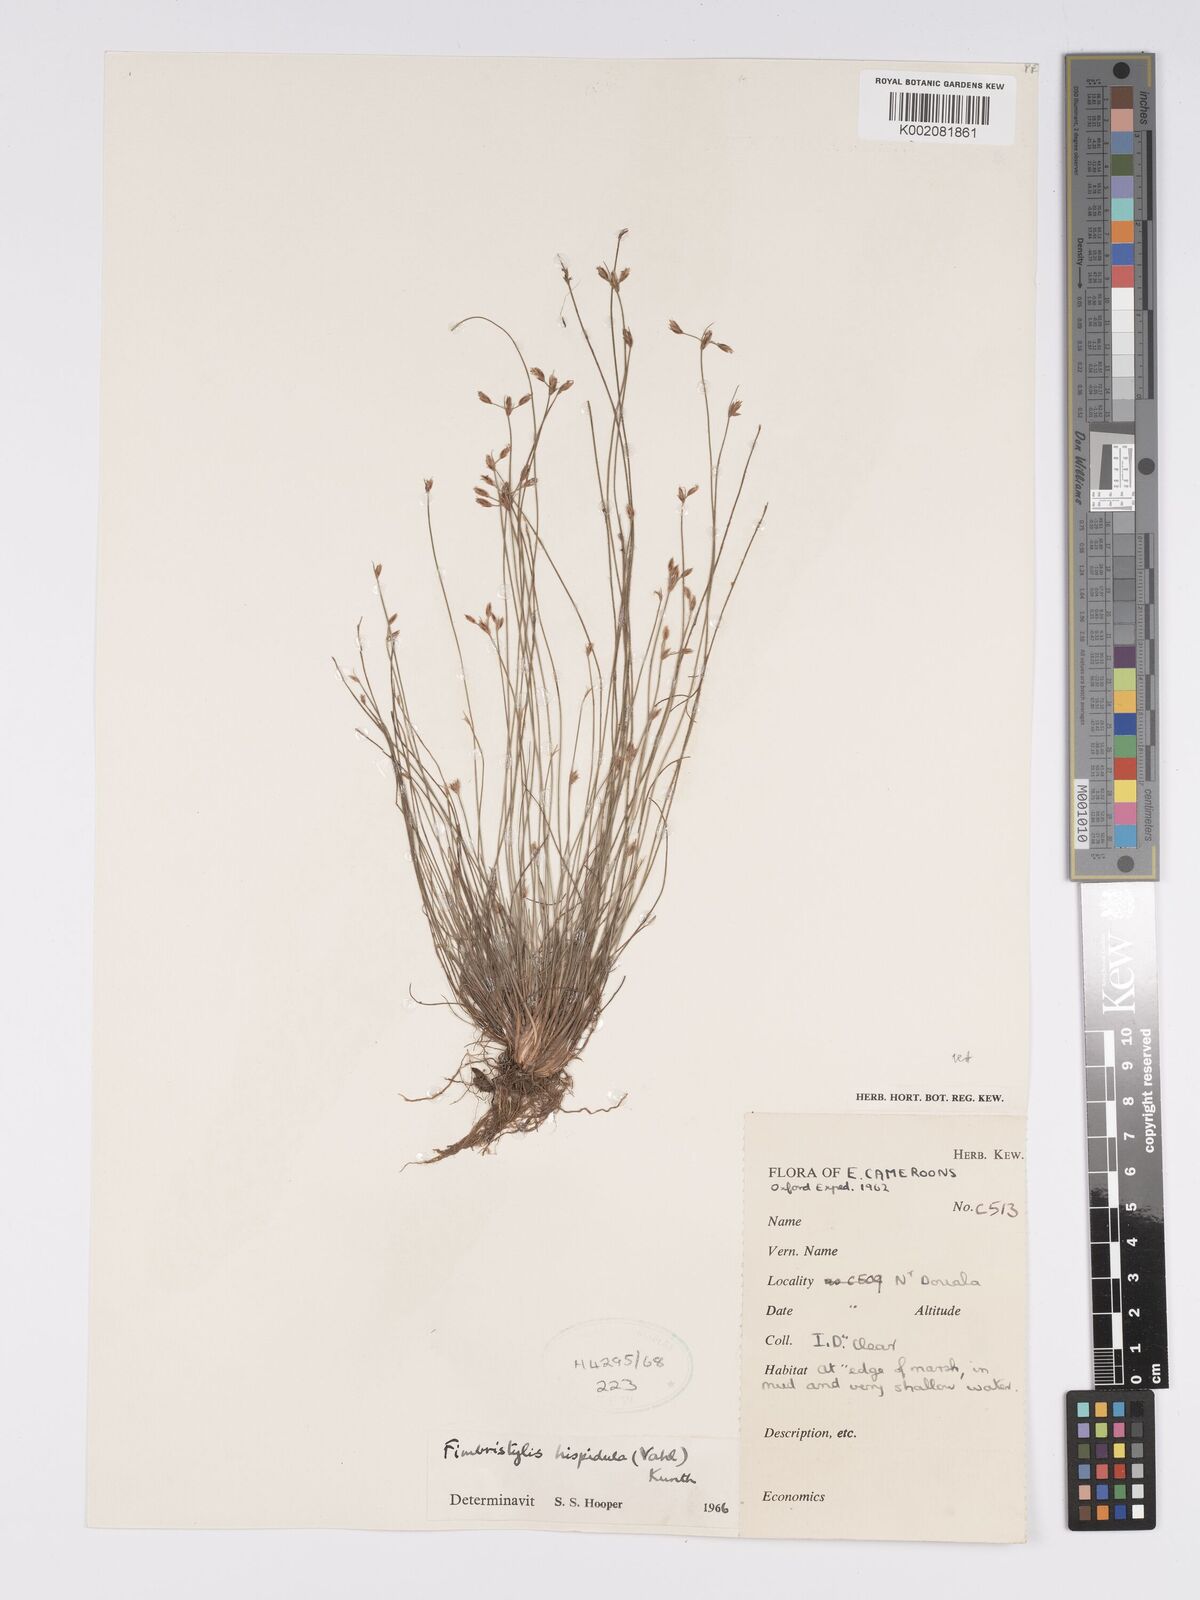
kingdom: Plantae
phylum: Tracheophyta
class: Liliopsida
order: Poales
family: Cyperaceae
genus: Bulbostylis
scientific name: Bulbostylis hispidula
